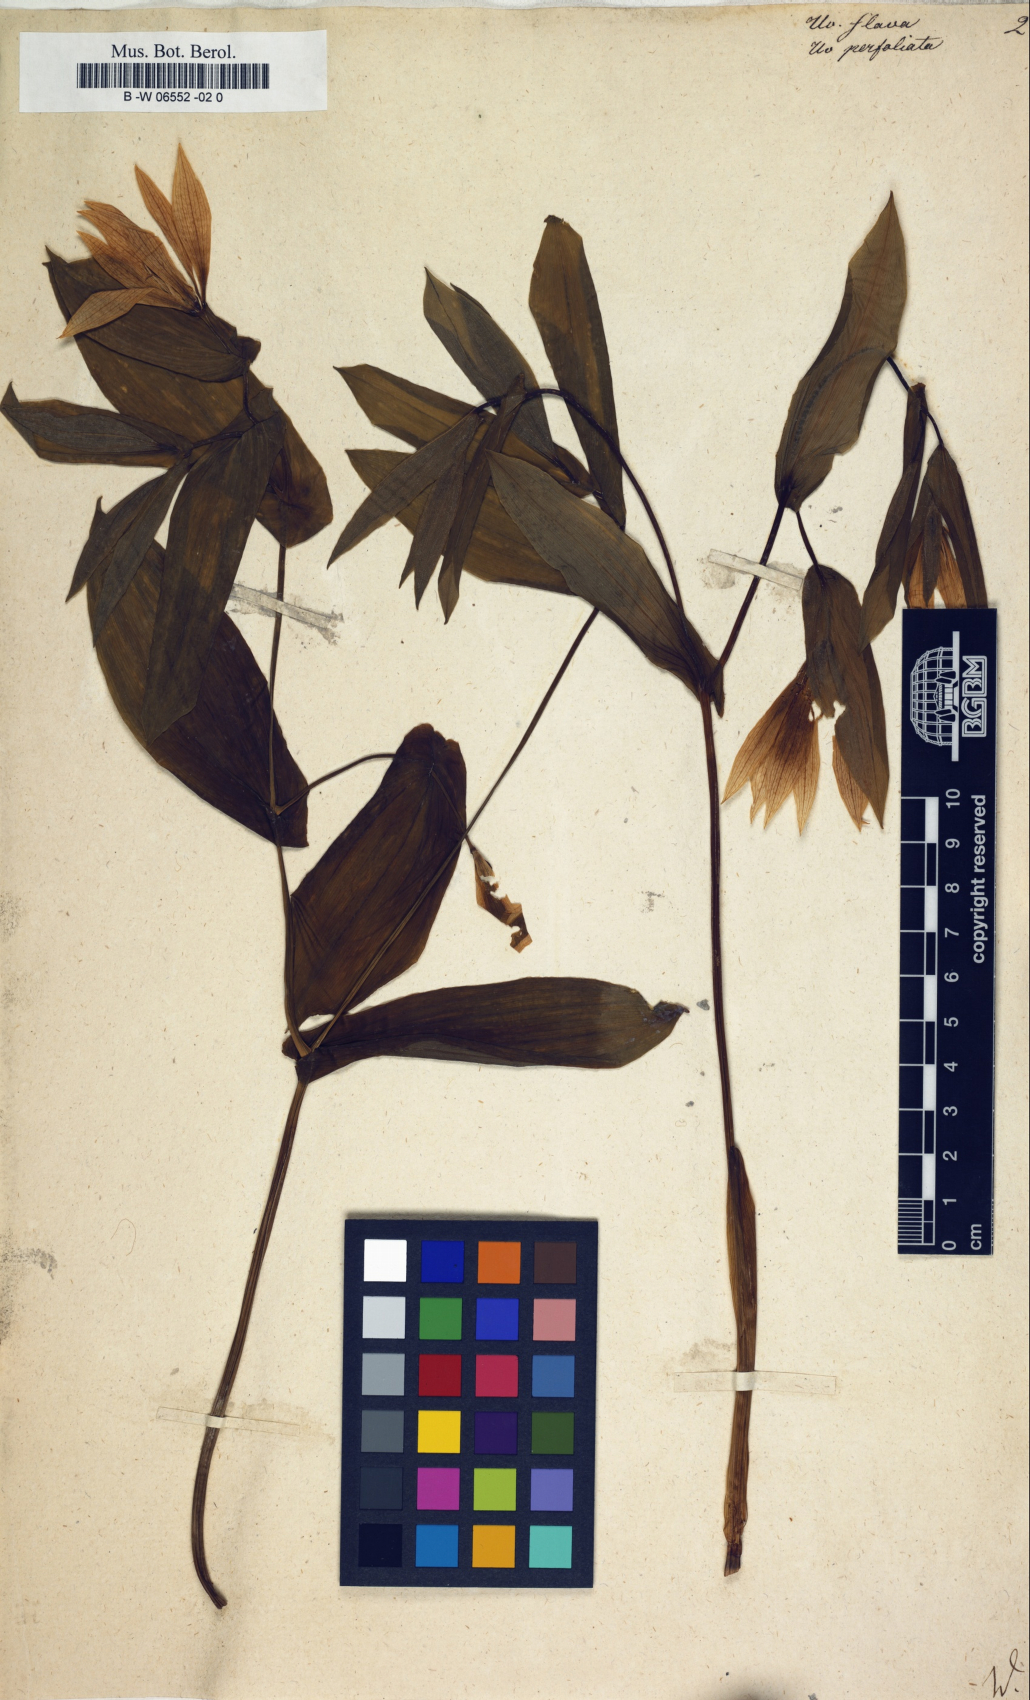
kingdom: Plantae
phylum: Tracheophyta
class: Liliopsida
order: Liliales
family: Colchicaceae
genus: Uvularia
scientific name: Uvularia perfoliata
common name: Perfoliate bellwort
